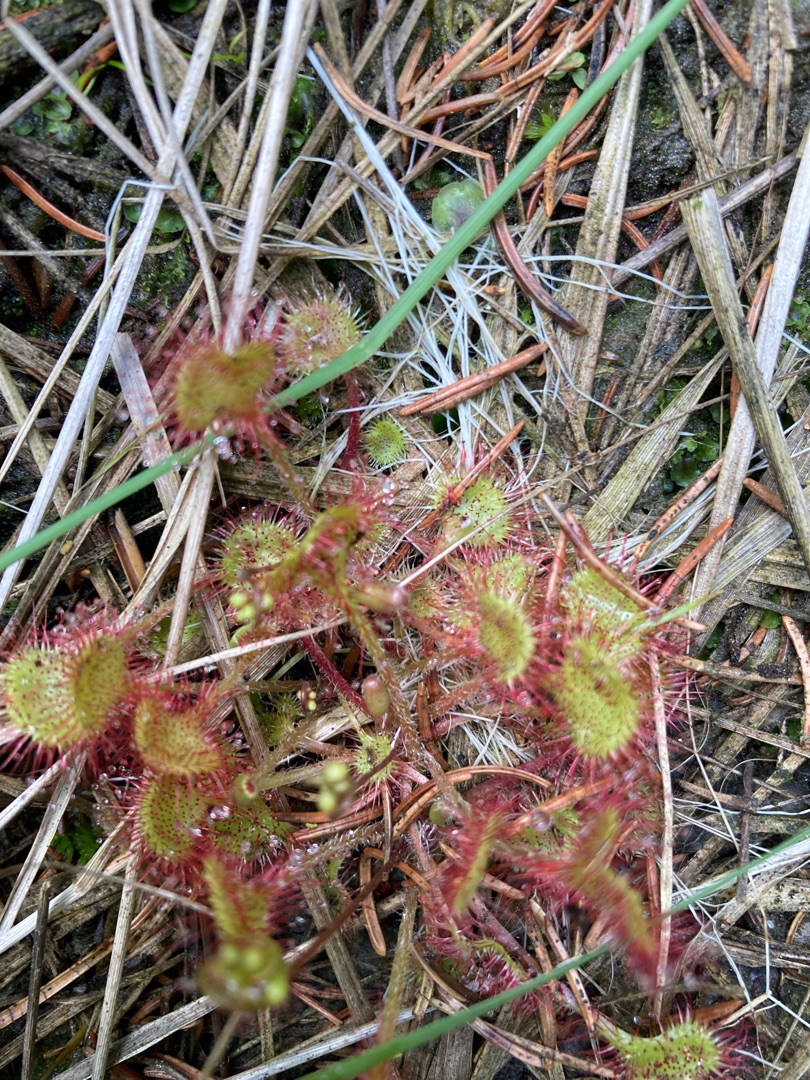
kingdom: Plantae
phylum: Tracheophyta
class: Magnoliopsida
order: Caryophyllales
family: Droseraceae
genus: Drosera
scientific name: Drosera rotundifolia
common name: Rundbladet soldug
